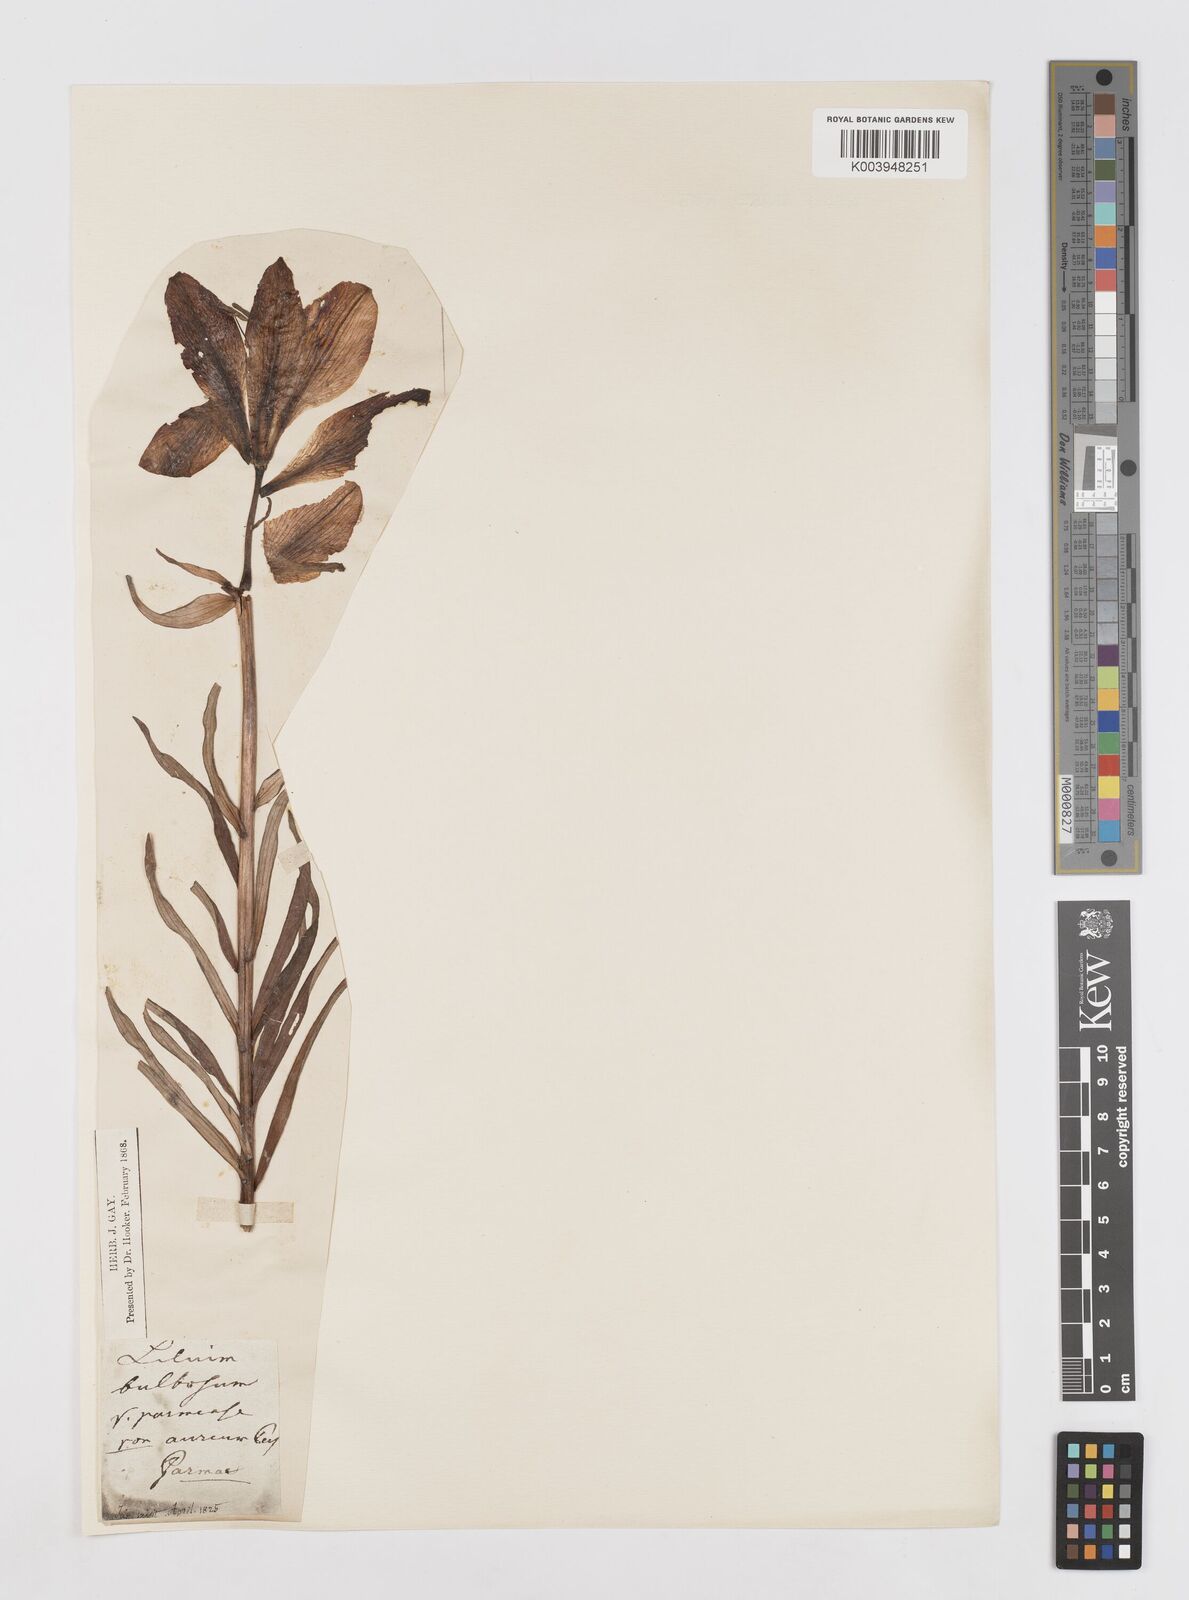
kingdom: Plantae
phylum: Tracheophyta
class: Liliopsida
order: Liliales
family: Liliaceae
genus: Lilium
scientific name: Lilium bulbiferum
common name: Orange lily
